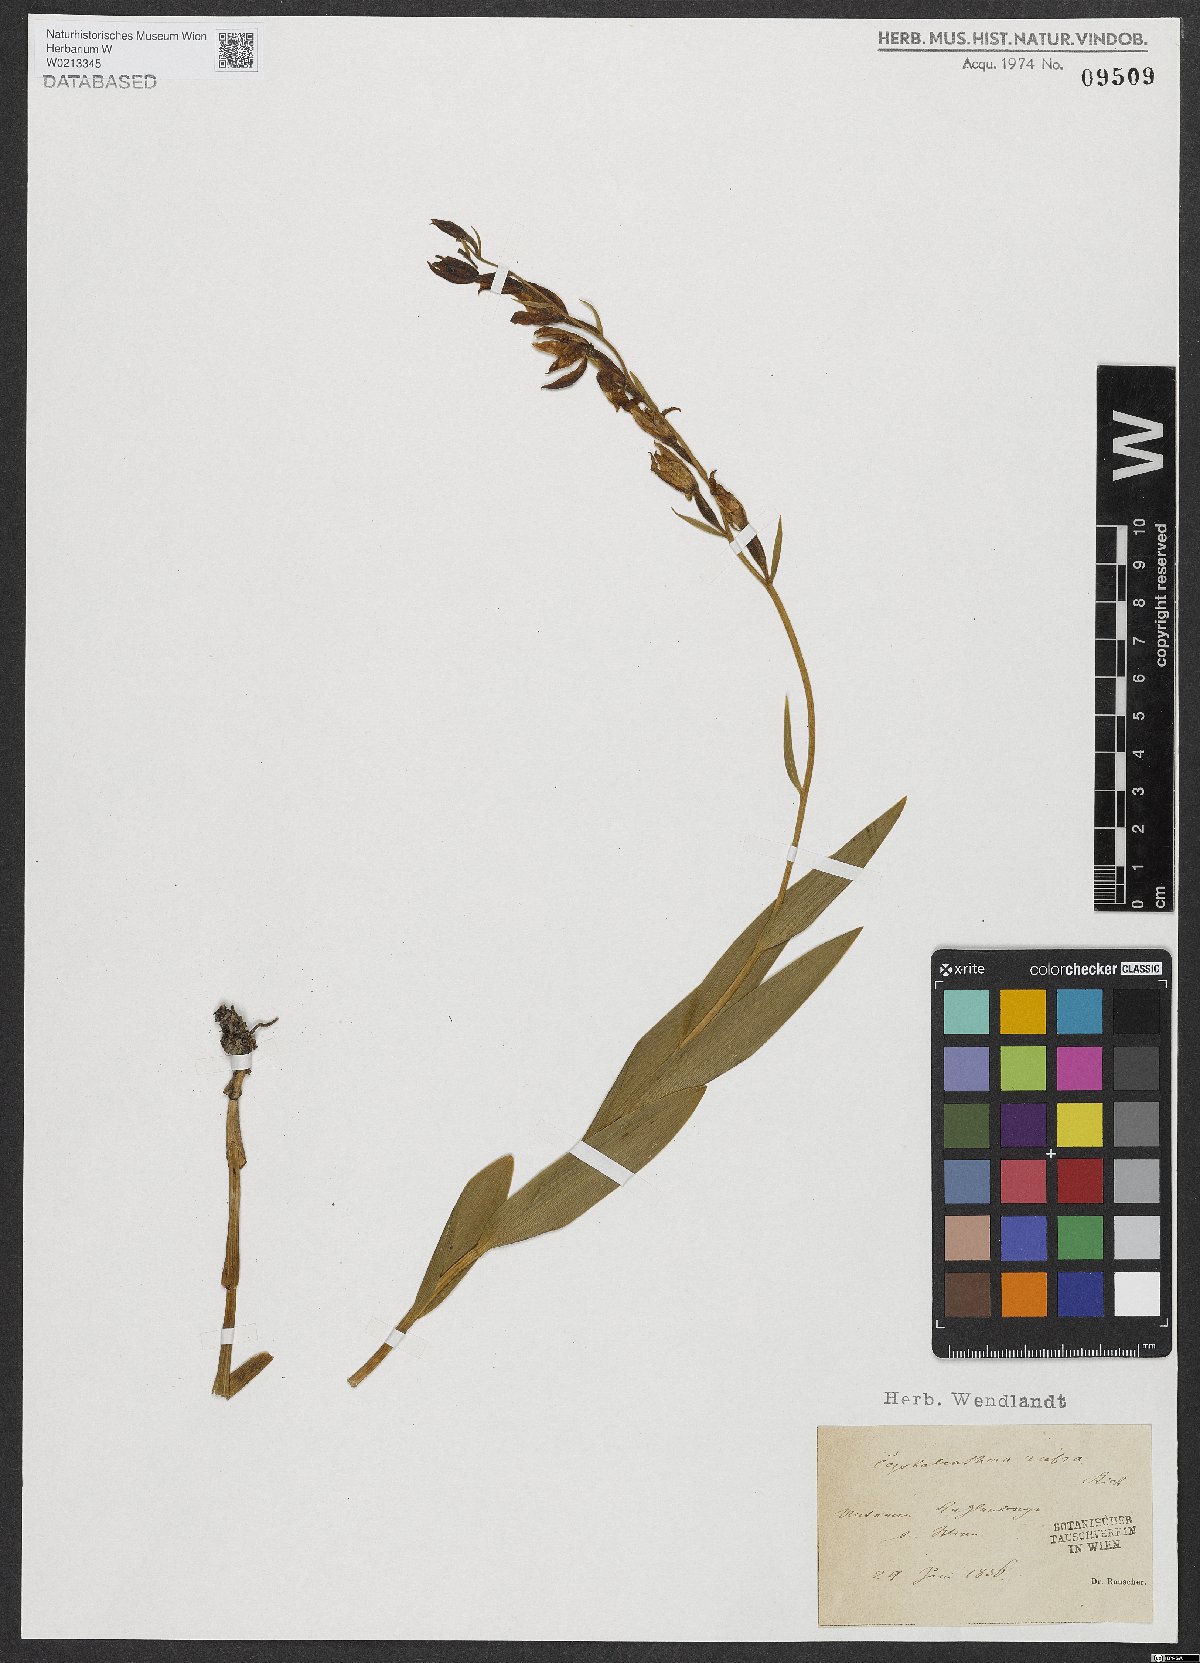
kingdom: Plantae
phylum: Tracheophyta
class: Liliopsida
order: Asparagales
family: Orchidaceae
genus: Cephalanthera
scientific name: Cephalanthera rubra
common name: Red helleborine
